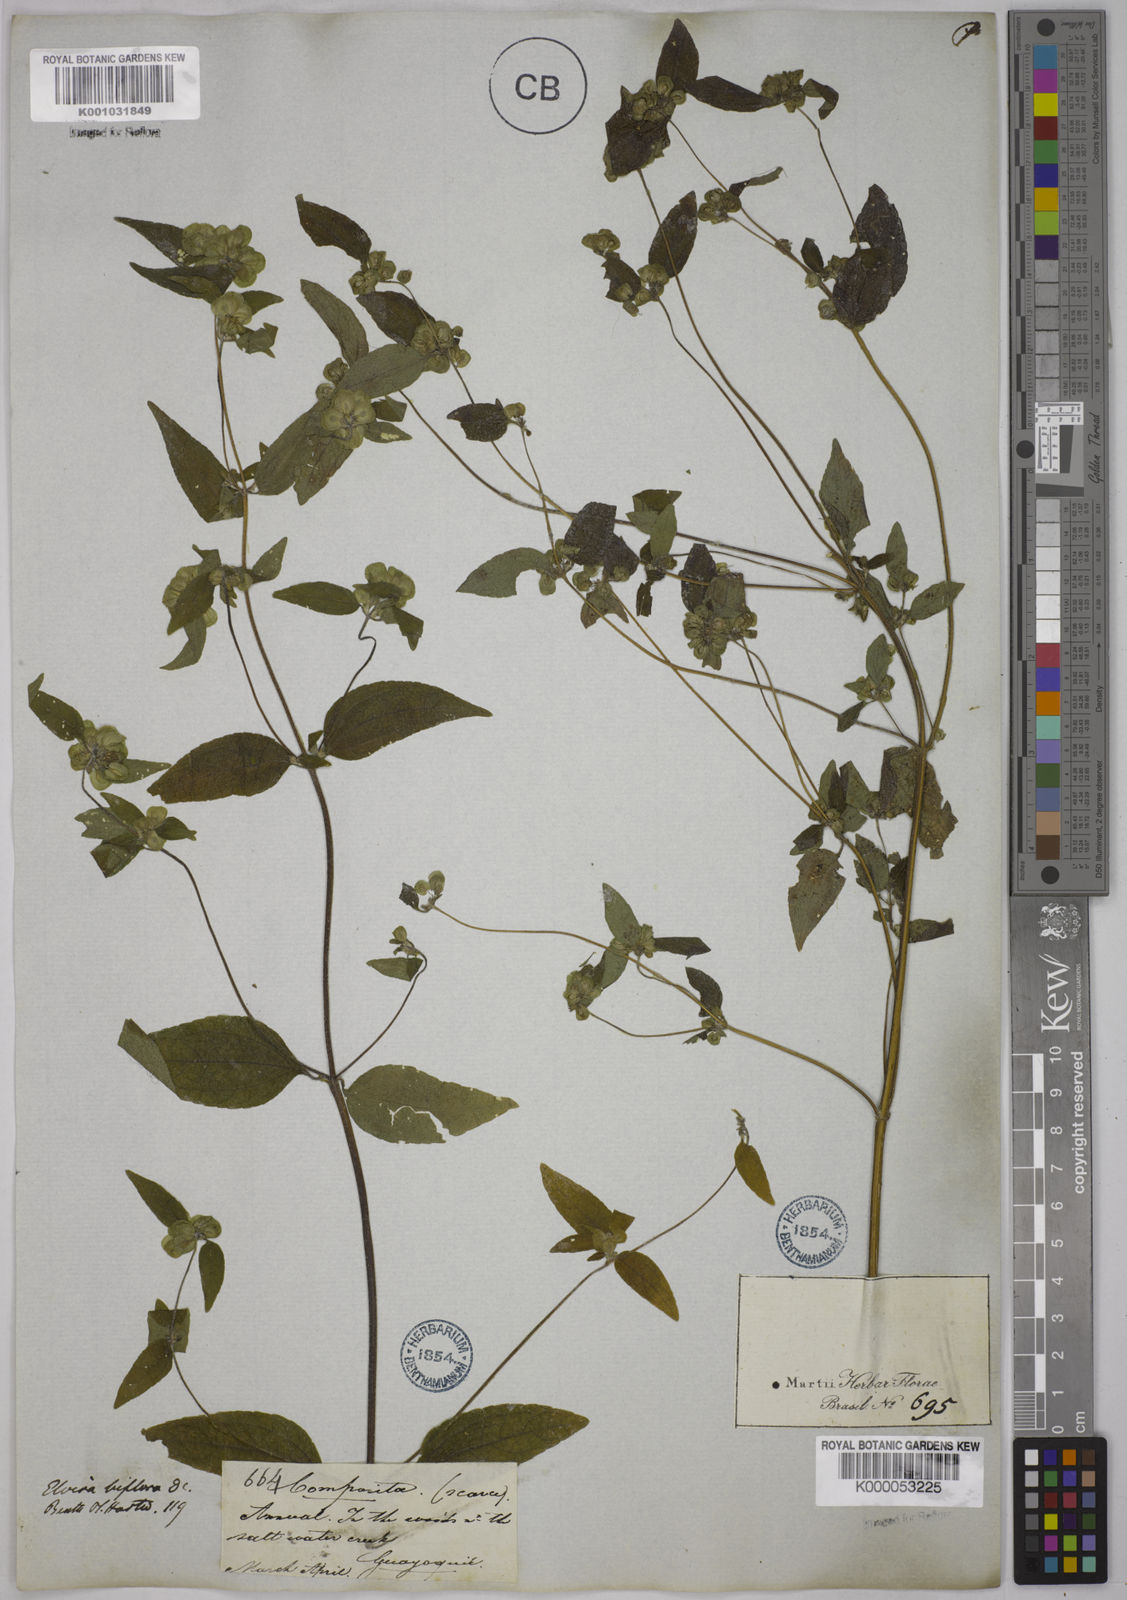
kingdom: Plantae
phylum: Tracheophyta
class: Magnoliopsida
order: Asterales
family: Asteraceae
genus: Delilia
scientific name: Delilia biflora
